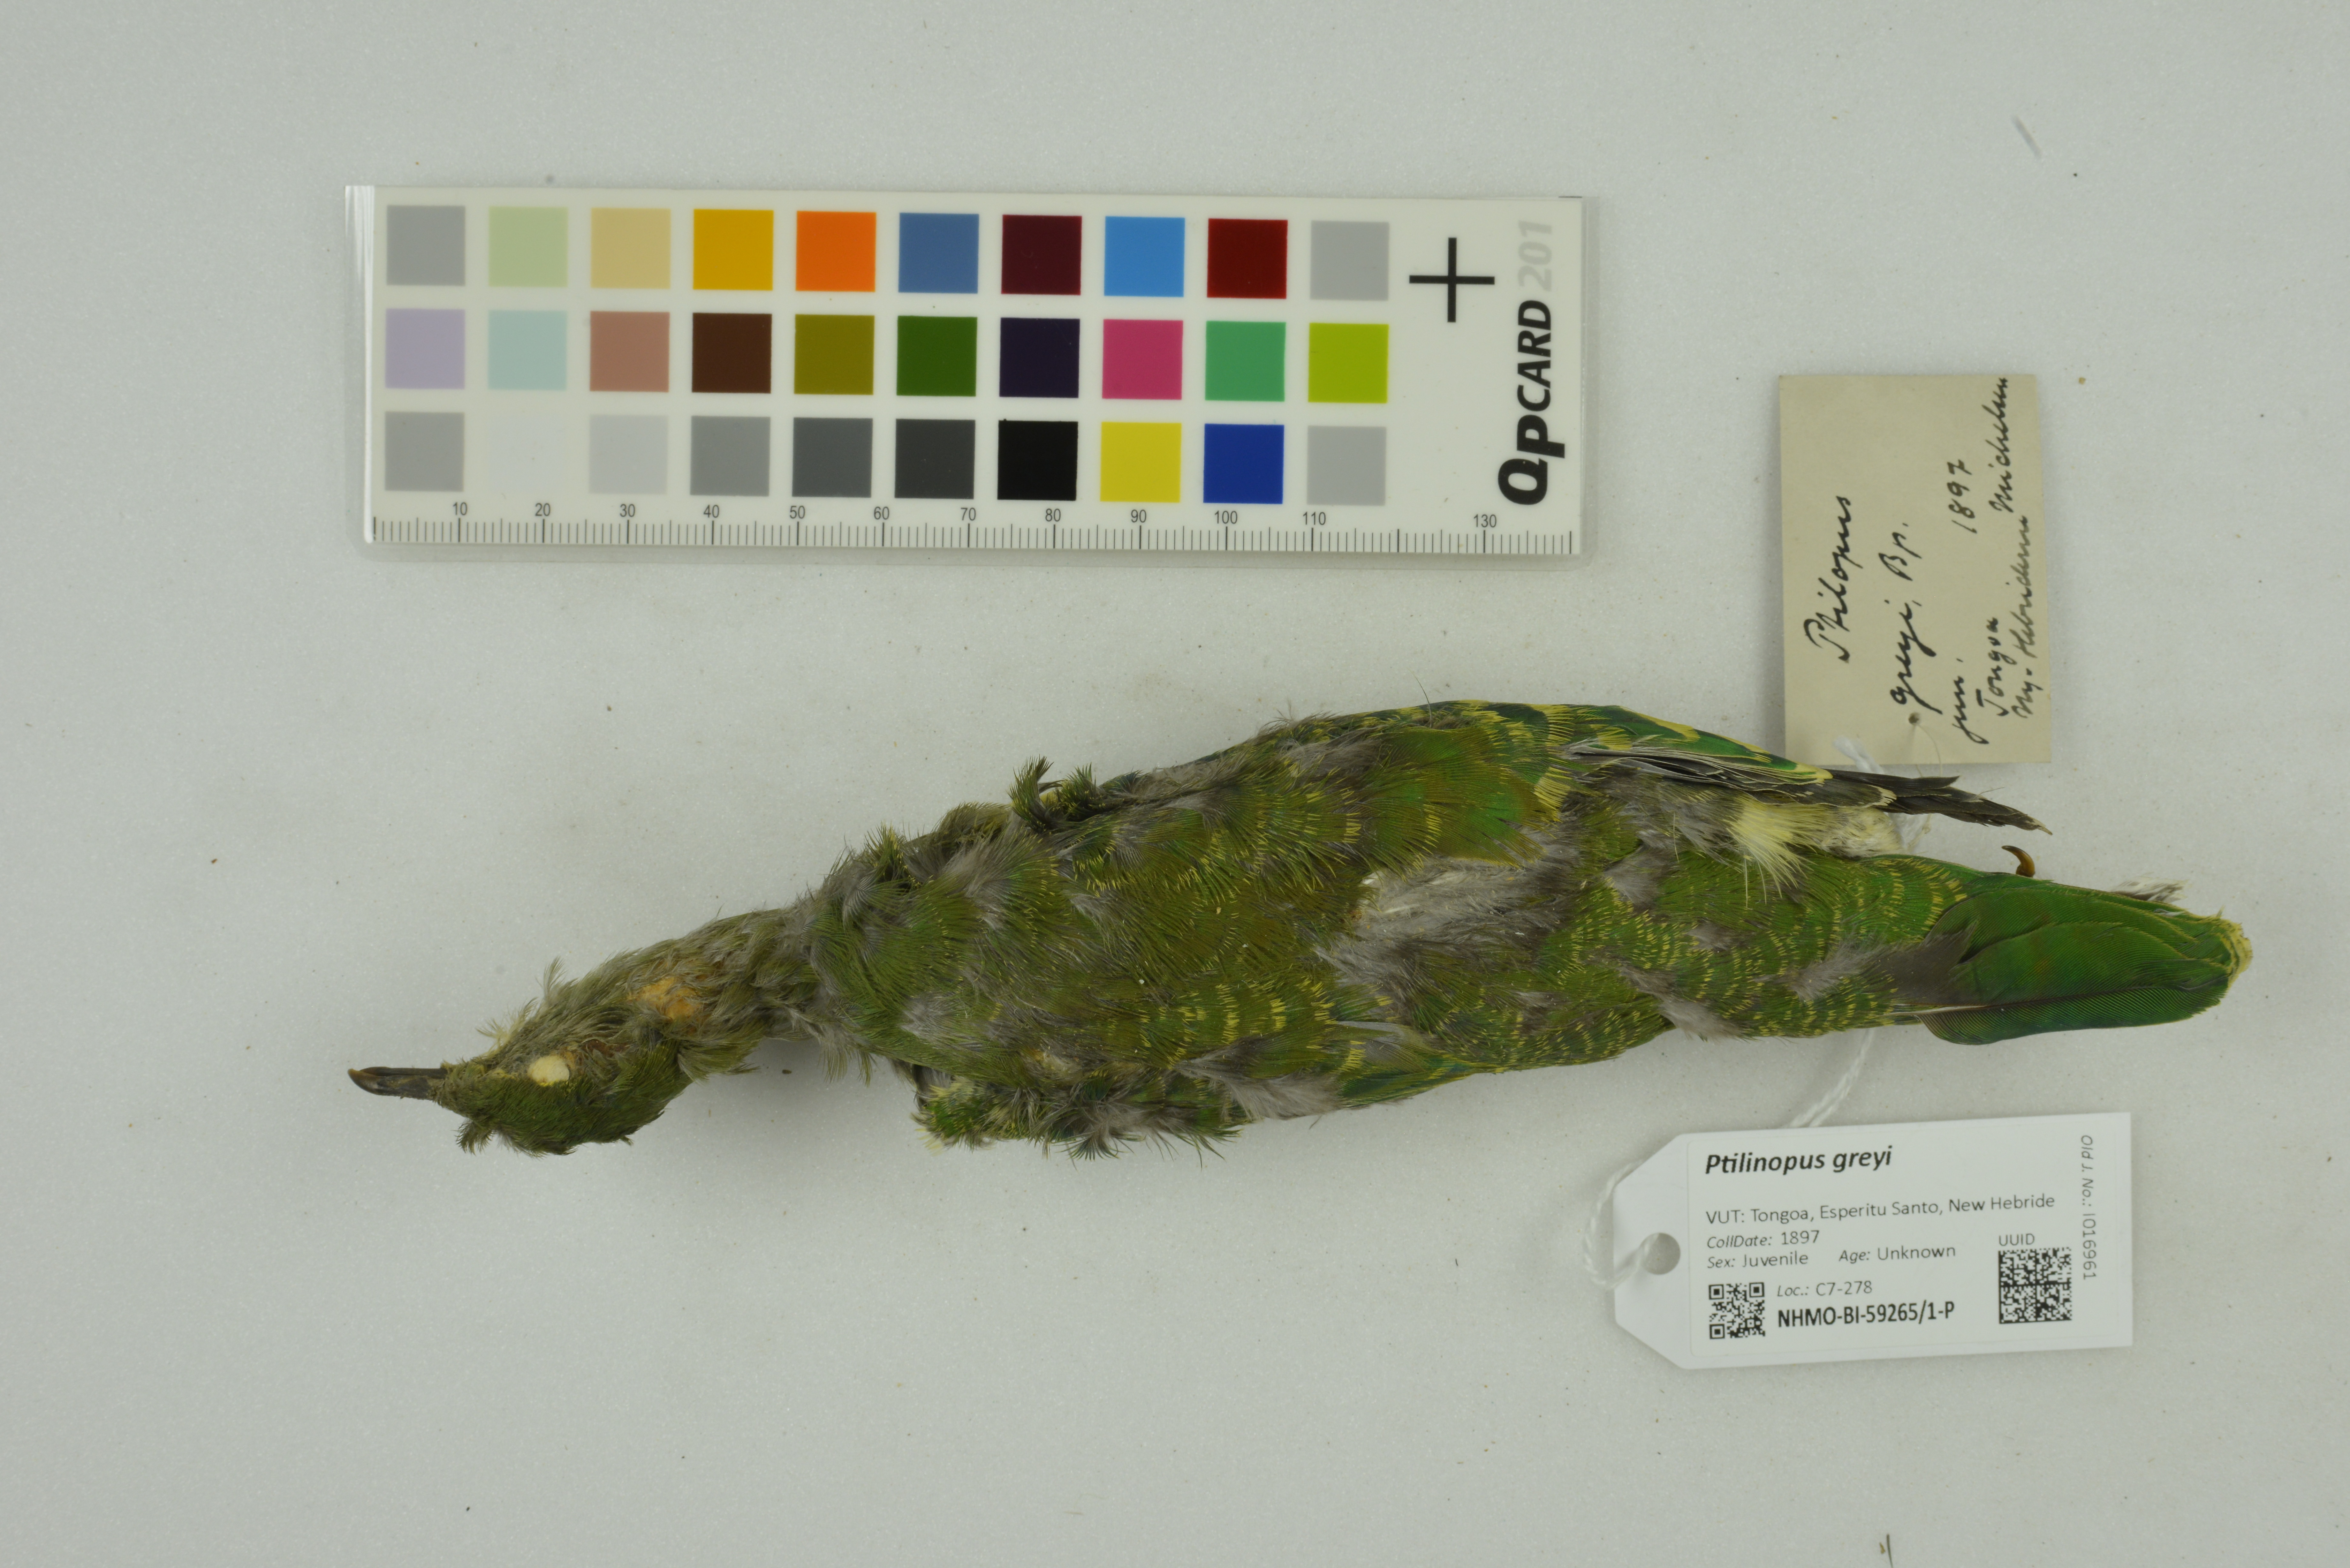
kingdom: Animalia
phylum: Chordata
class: Aves
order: Columbiformes
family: Columbidae
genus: Ptilinopus
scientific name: Ptilinopus greyi
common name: Red-bellied fruit-dove
